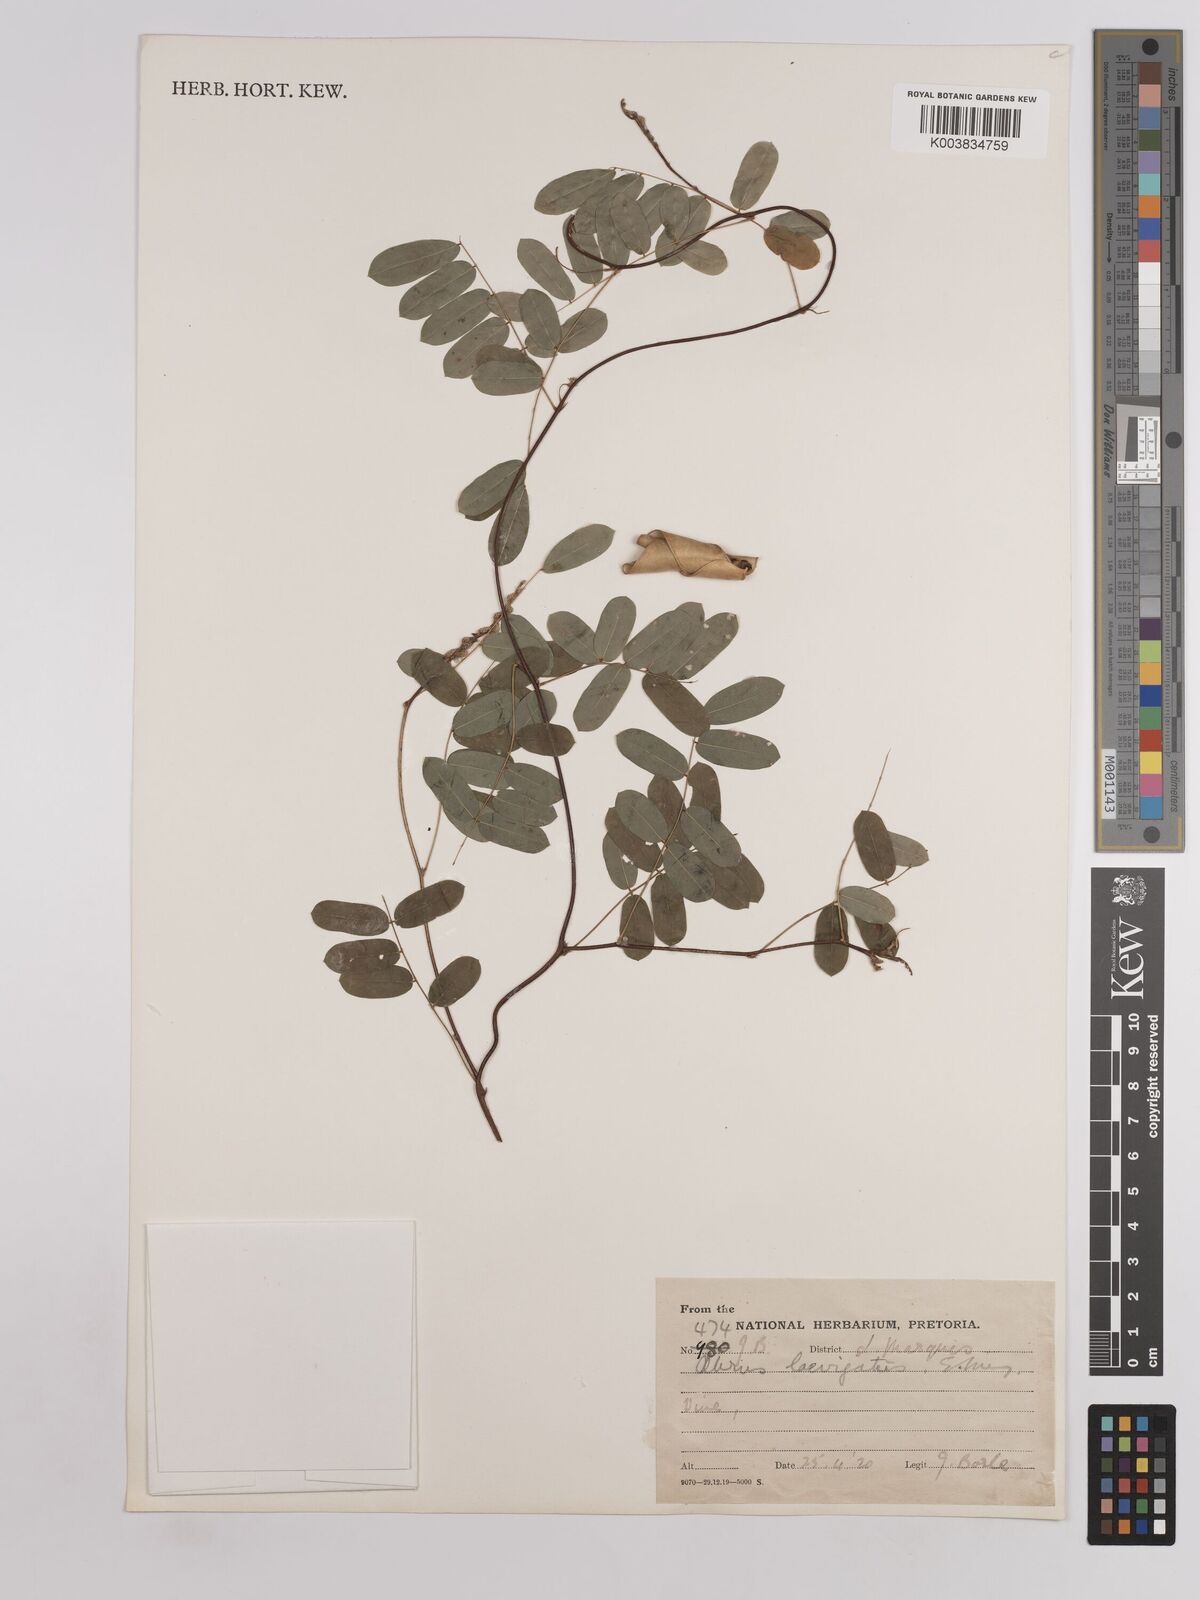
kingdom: Plantae
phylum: Tracheophyta
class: Magnoliopsida
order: Fabales
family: Fabaceae
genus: Abrus
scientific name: Abrus laevigatus
